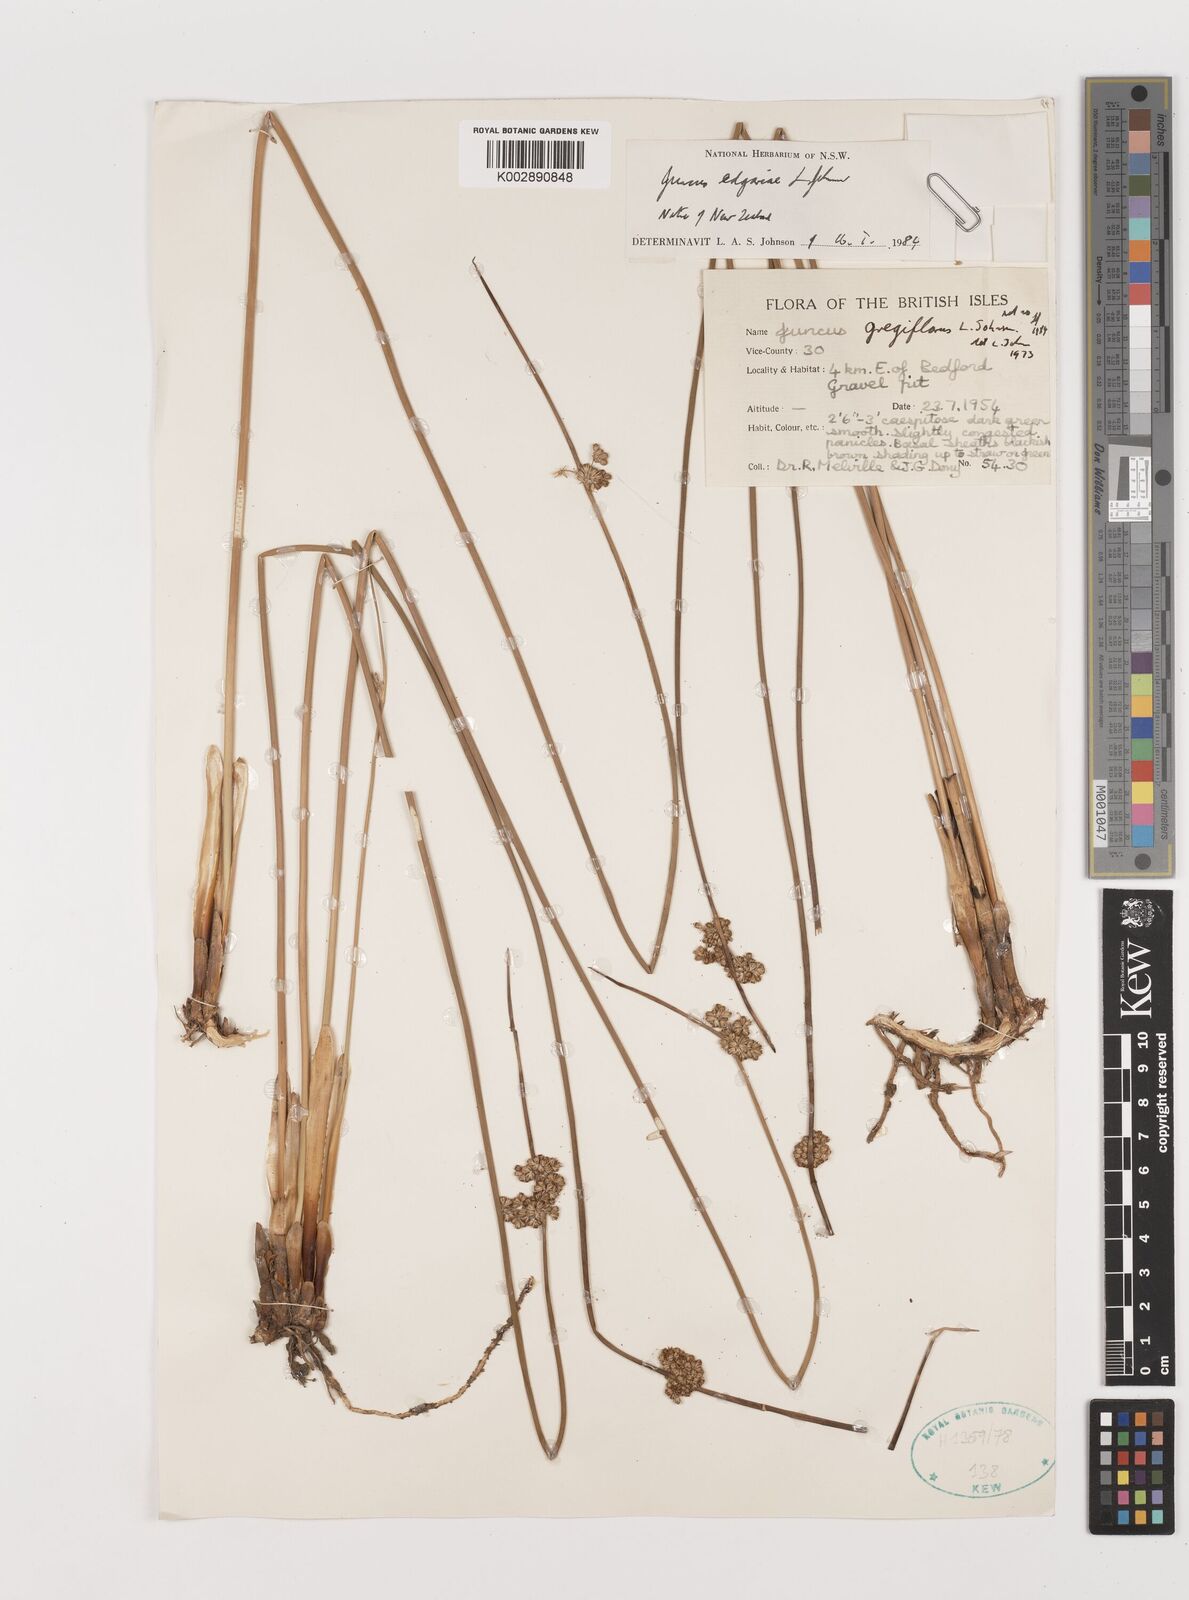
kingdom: Plantae
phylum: Tracheophyta
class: Liliopsida
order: Poales
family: Juncaceae
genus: Juncus
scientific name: Juncus gregiflorus
